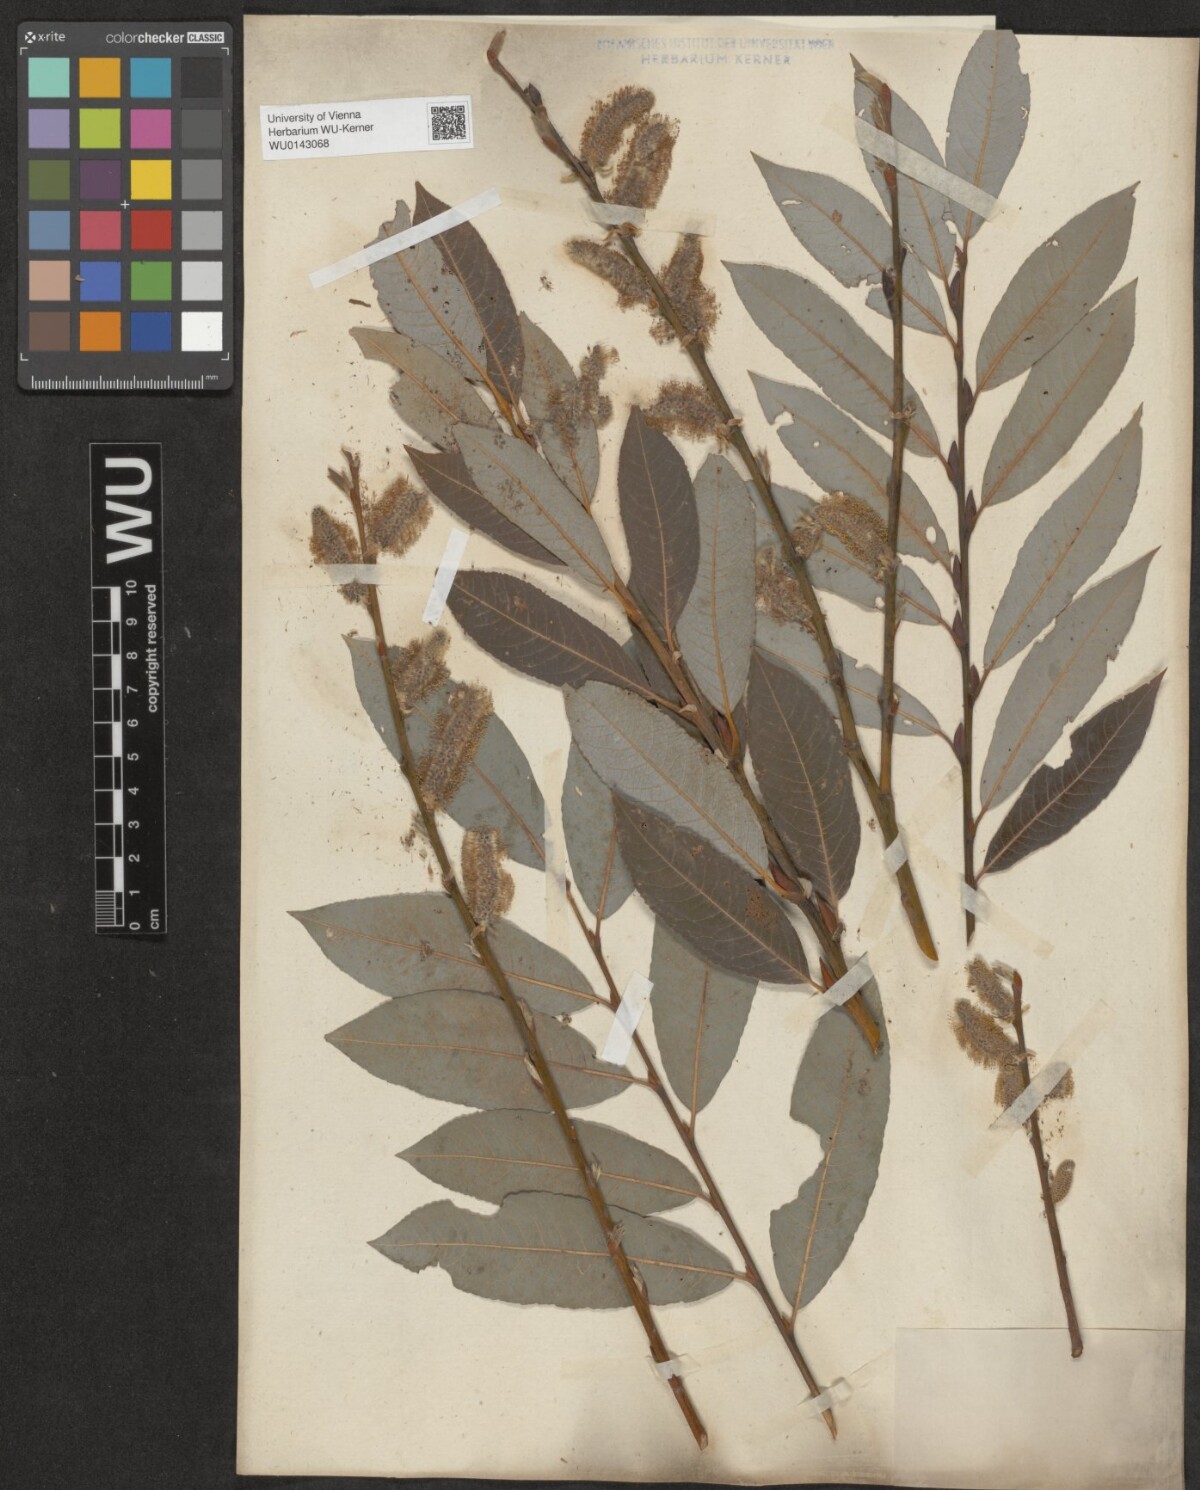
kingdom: Plantae
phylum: Tracheophyta
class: Magnoliopsida
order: Malpighiales
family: Salicaceae
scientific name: Salicaceae
